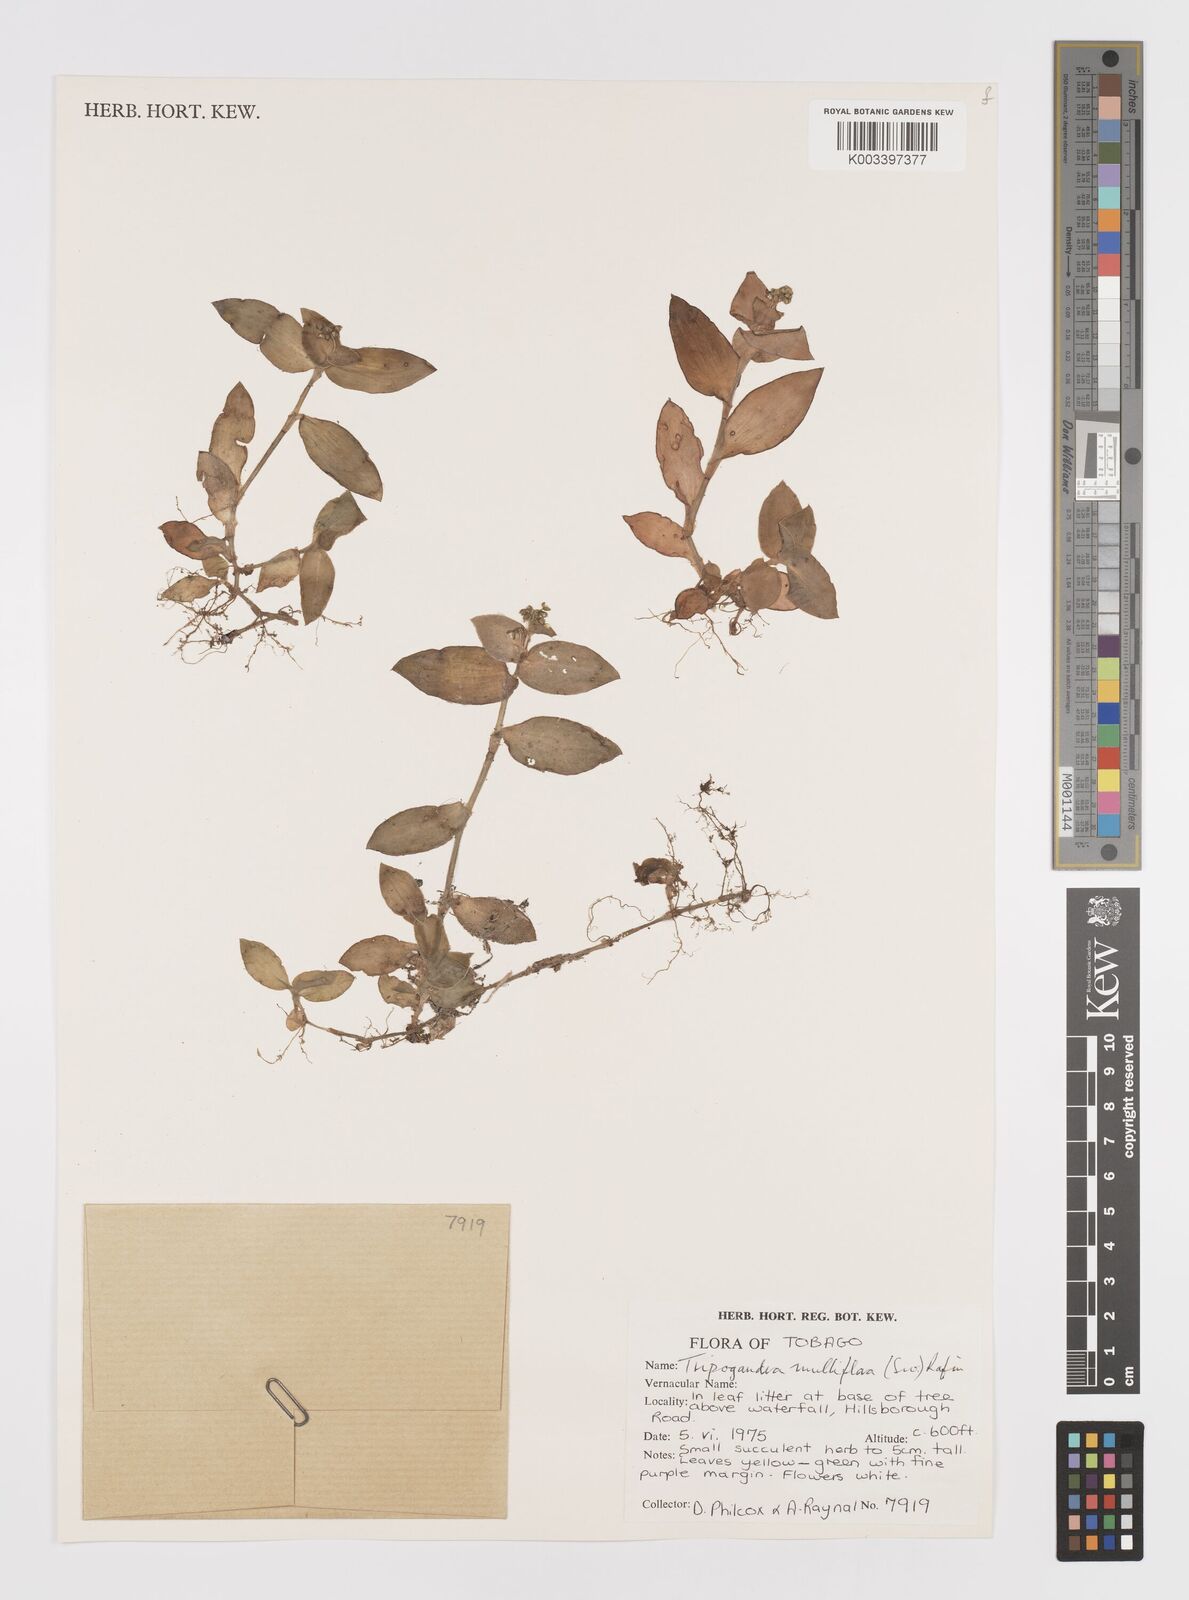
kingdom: Plantae
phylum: Tracheophyta
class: Liliopsida
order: Commelinales
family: Commelinaceae
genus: Callisia
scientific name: Callisia procumbens
